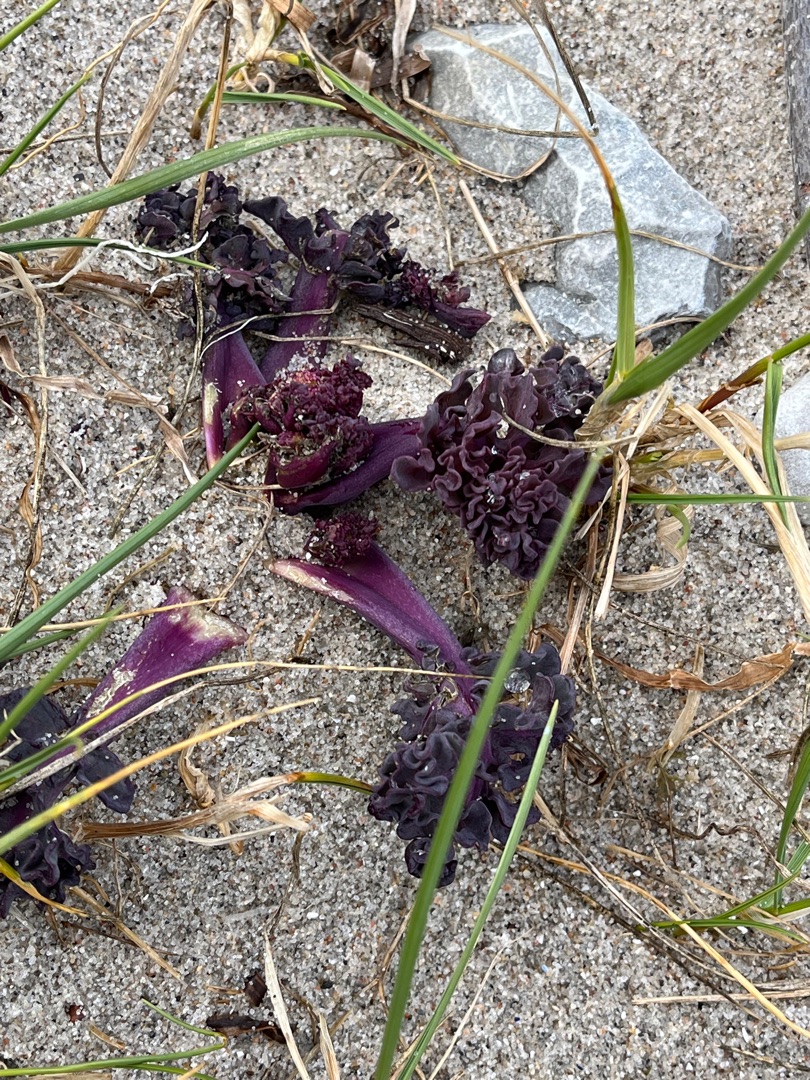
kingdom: Plantae
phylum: Tracheophyta
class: Magnoliopsida
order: Brassicales
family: Brassicaceae
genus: Crambe
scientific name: Crambe maritima
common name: Strandkål
